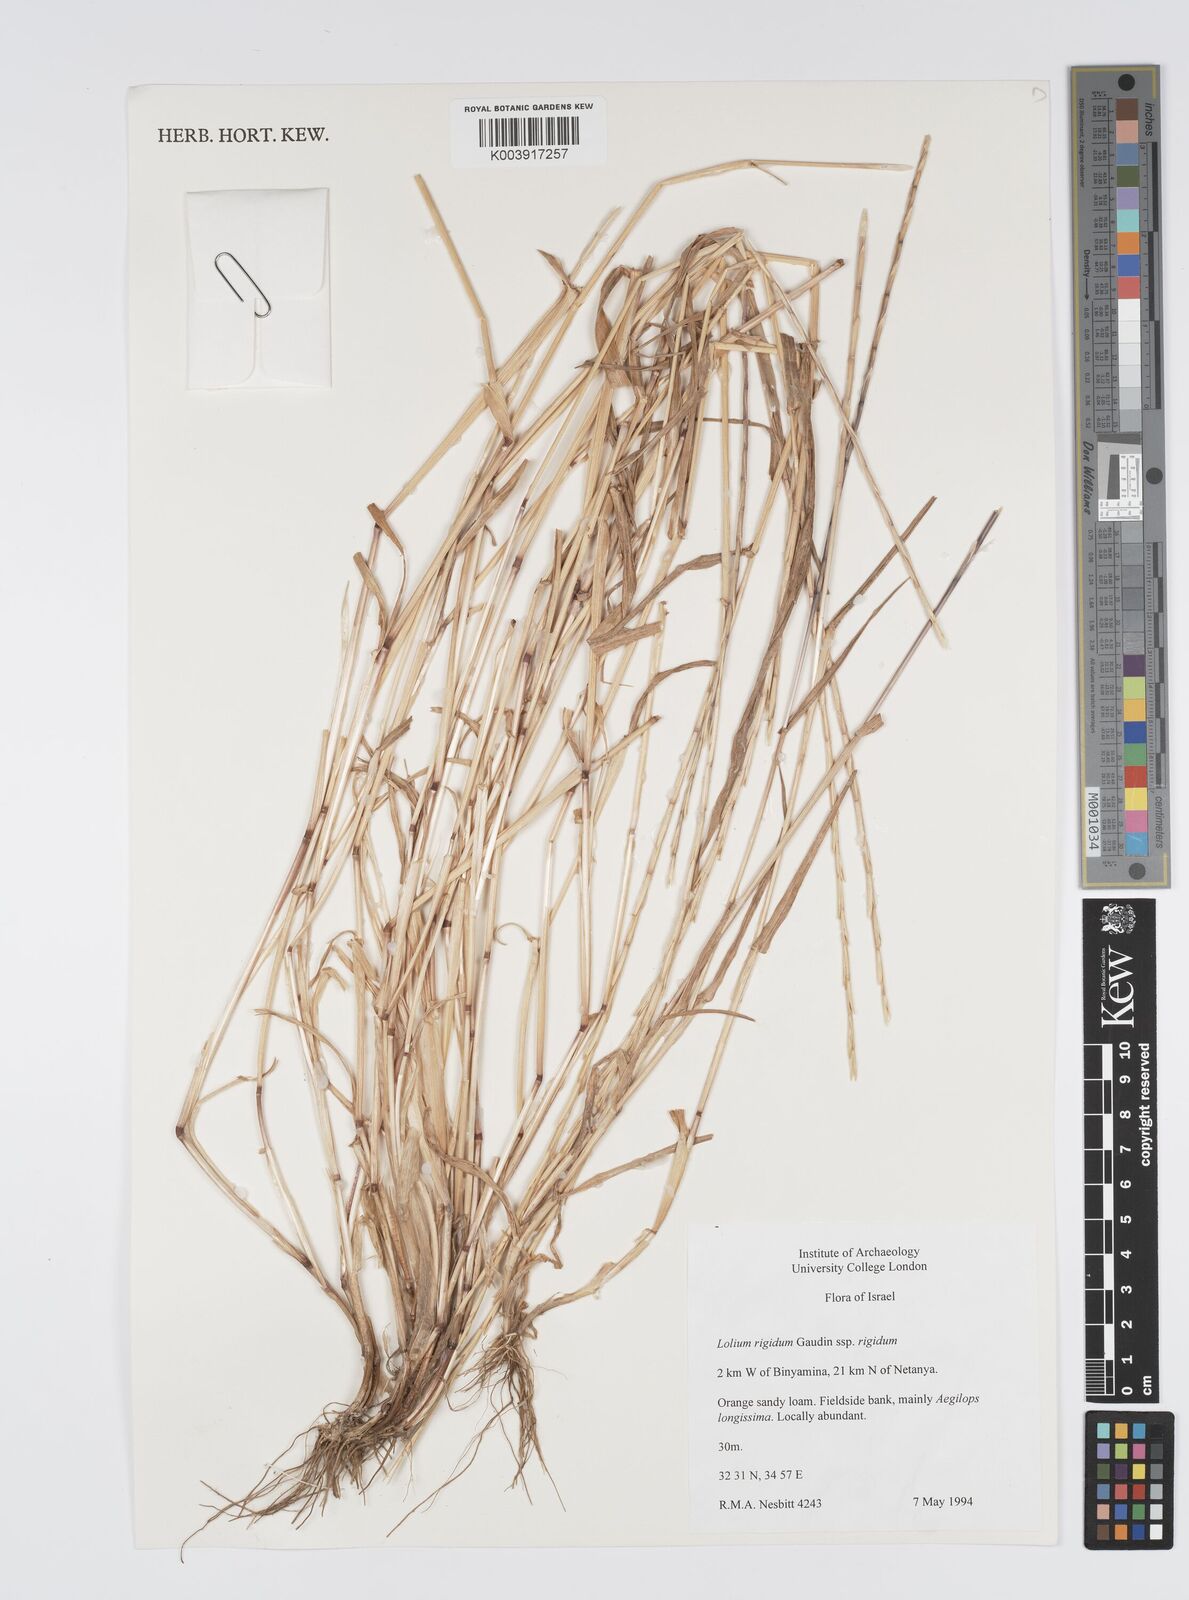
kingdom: Plantae
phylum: Tracheophyta
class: Liliopsida
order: Poales
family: Poaceae
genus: Lolium
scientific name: Lolium rigidum
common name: Wimmera ryegrass
